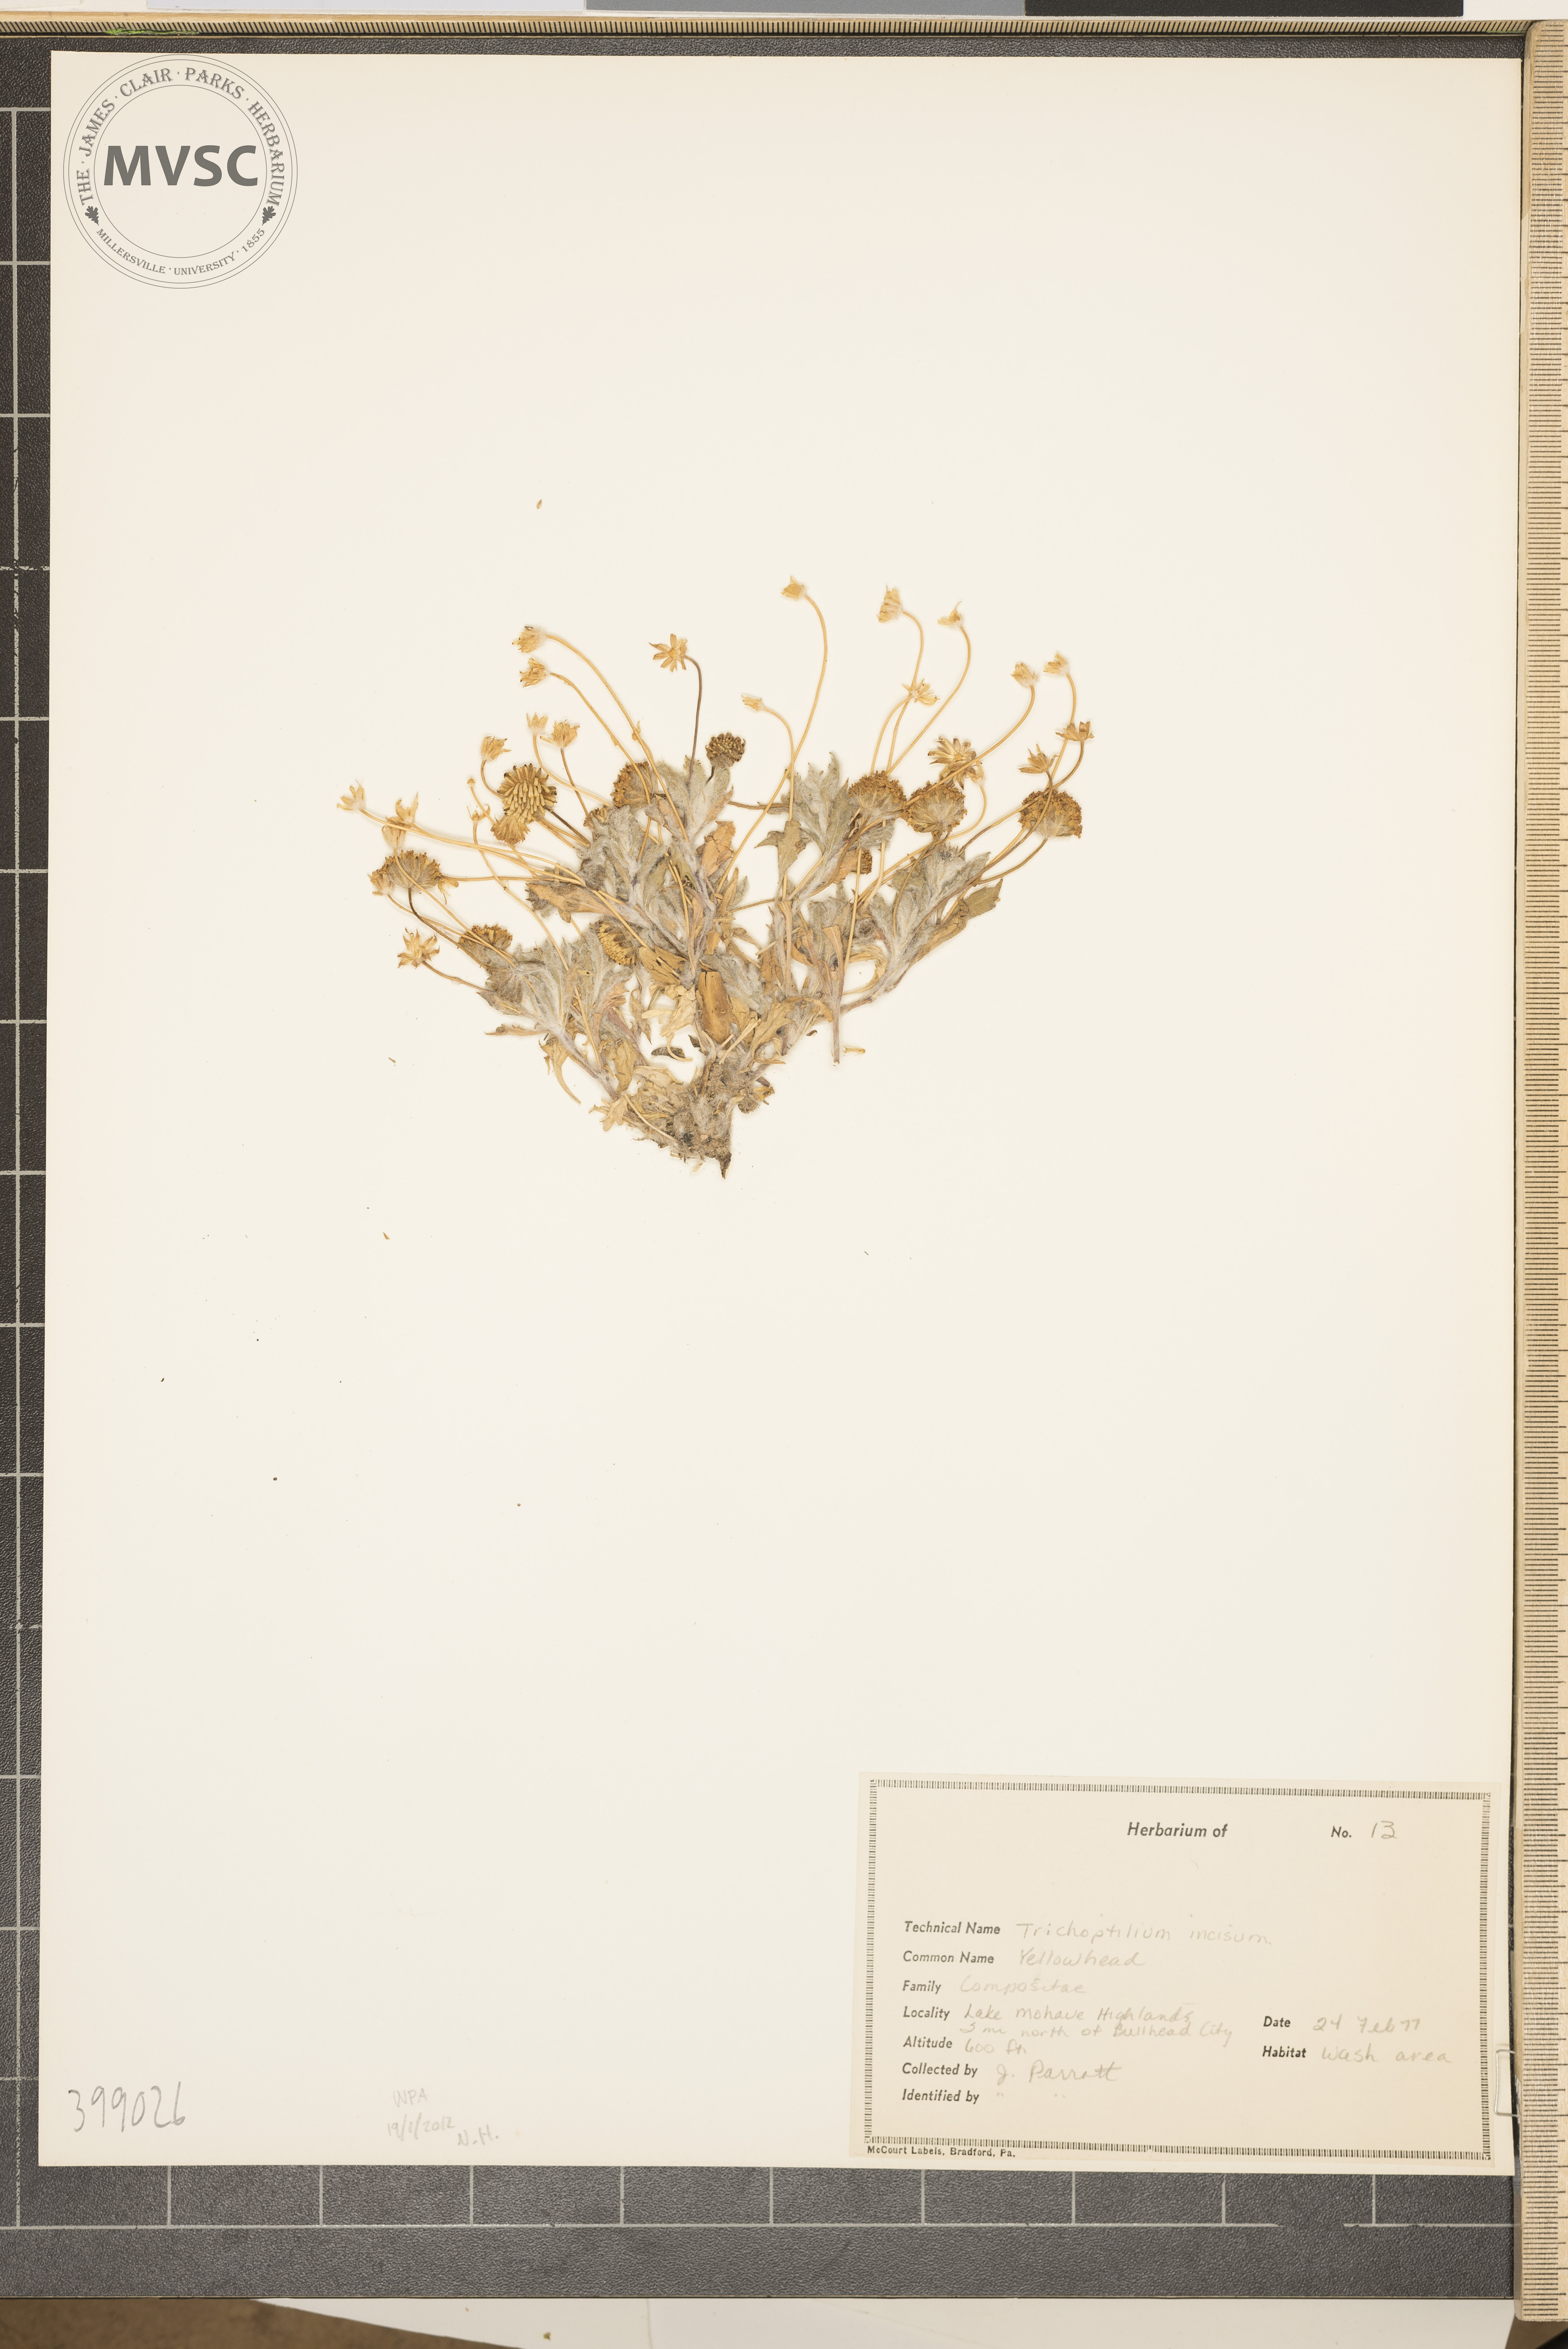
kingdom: Plantae
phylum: Tracheophyta
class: Magnoliopsida
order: Asterales
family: Asteraceae
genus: Trichoptilium
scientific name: Trichoptilium incisum
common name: Club-rush
